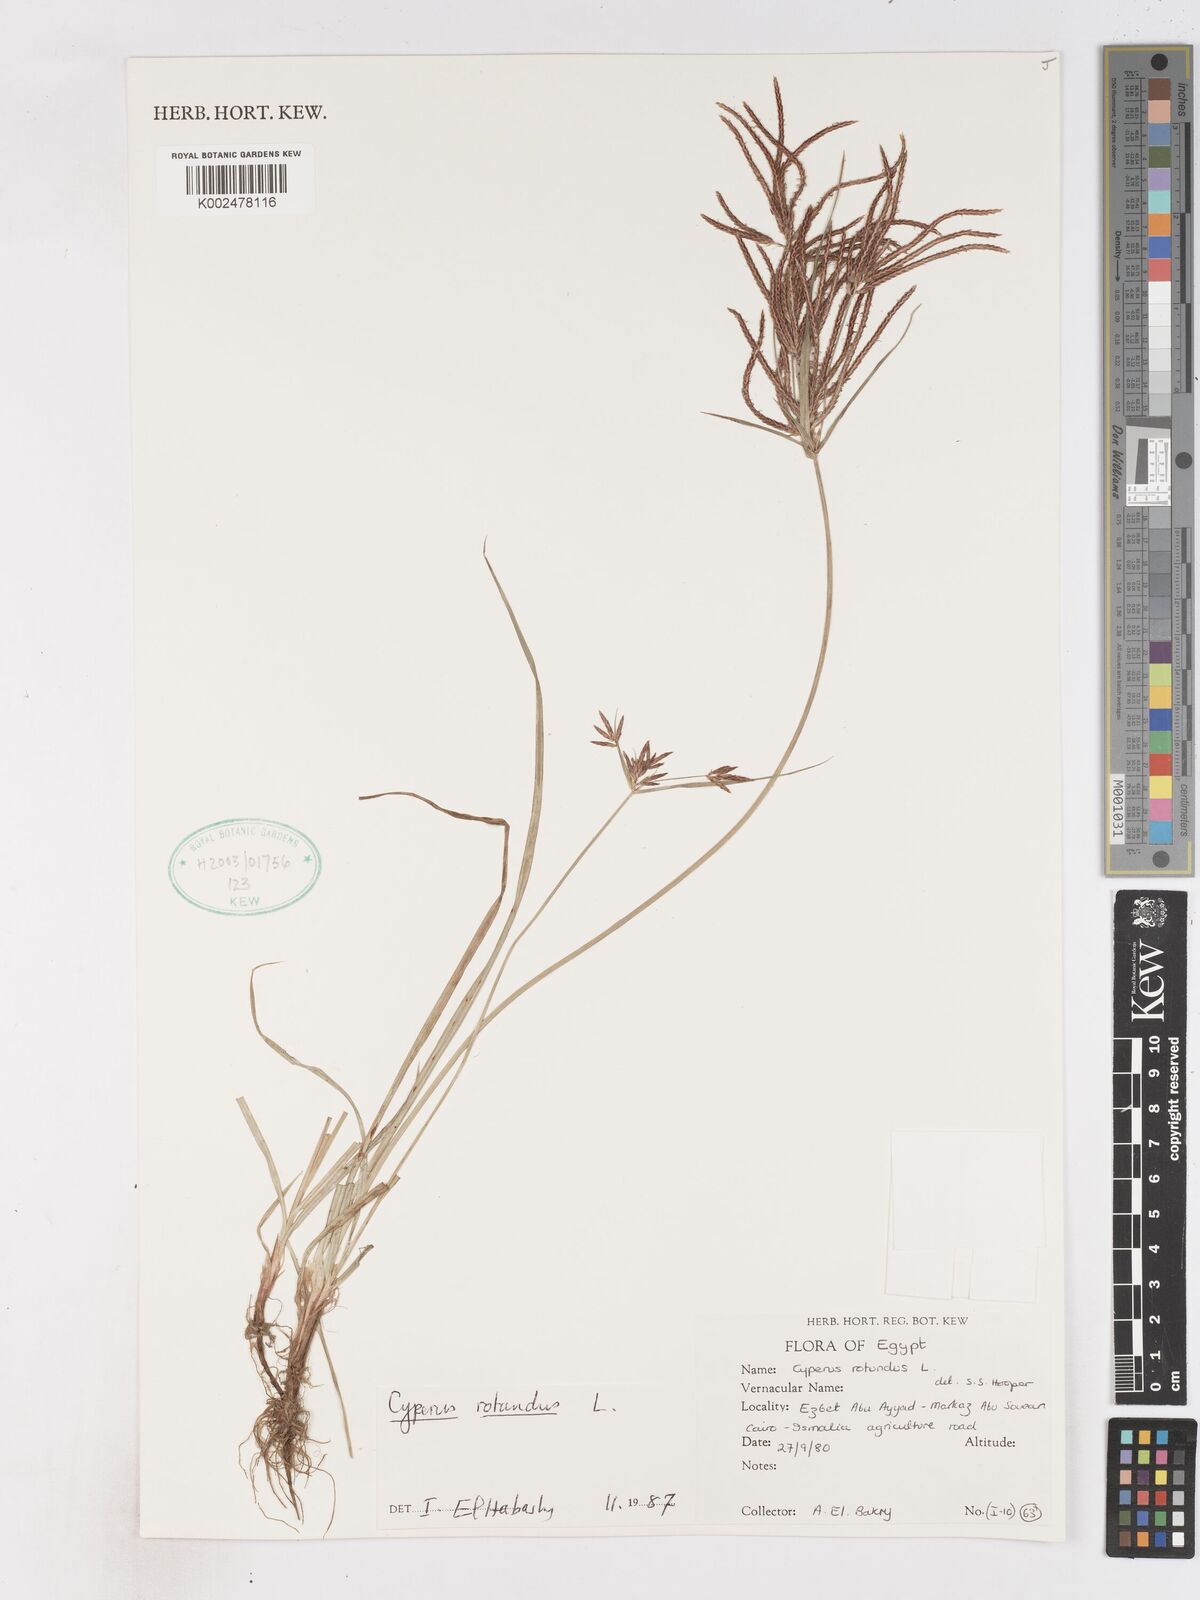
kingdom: Plantae
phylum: Tracheophyta
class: Liliopsida
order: Poales
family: Cyperaceae
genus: Cyperus
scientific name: Cyperus rotundus
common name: Nutgrass
